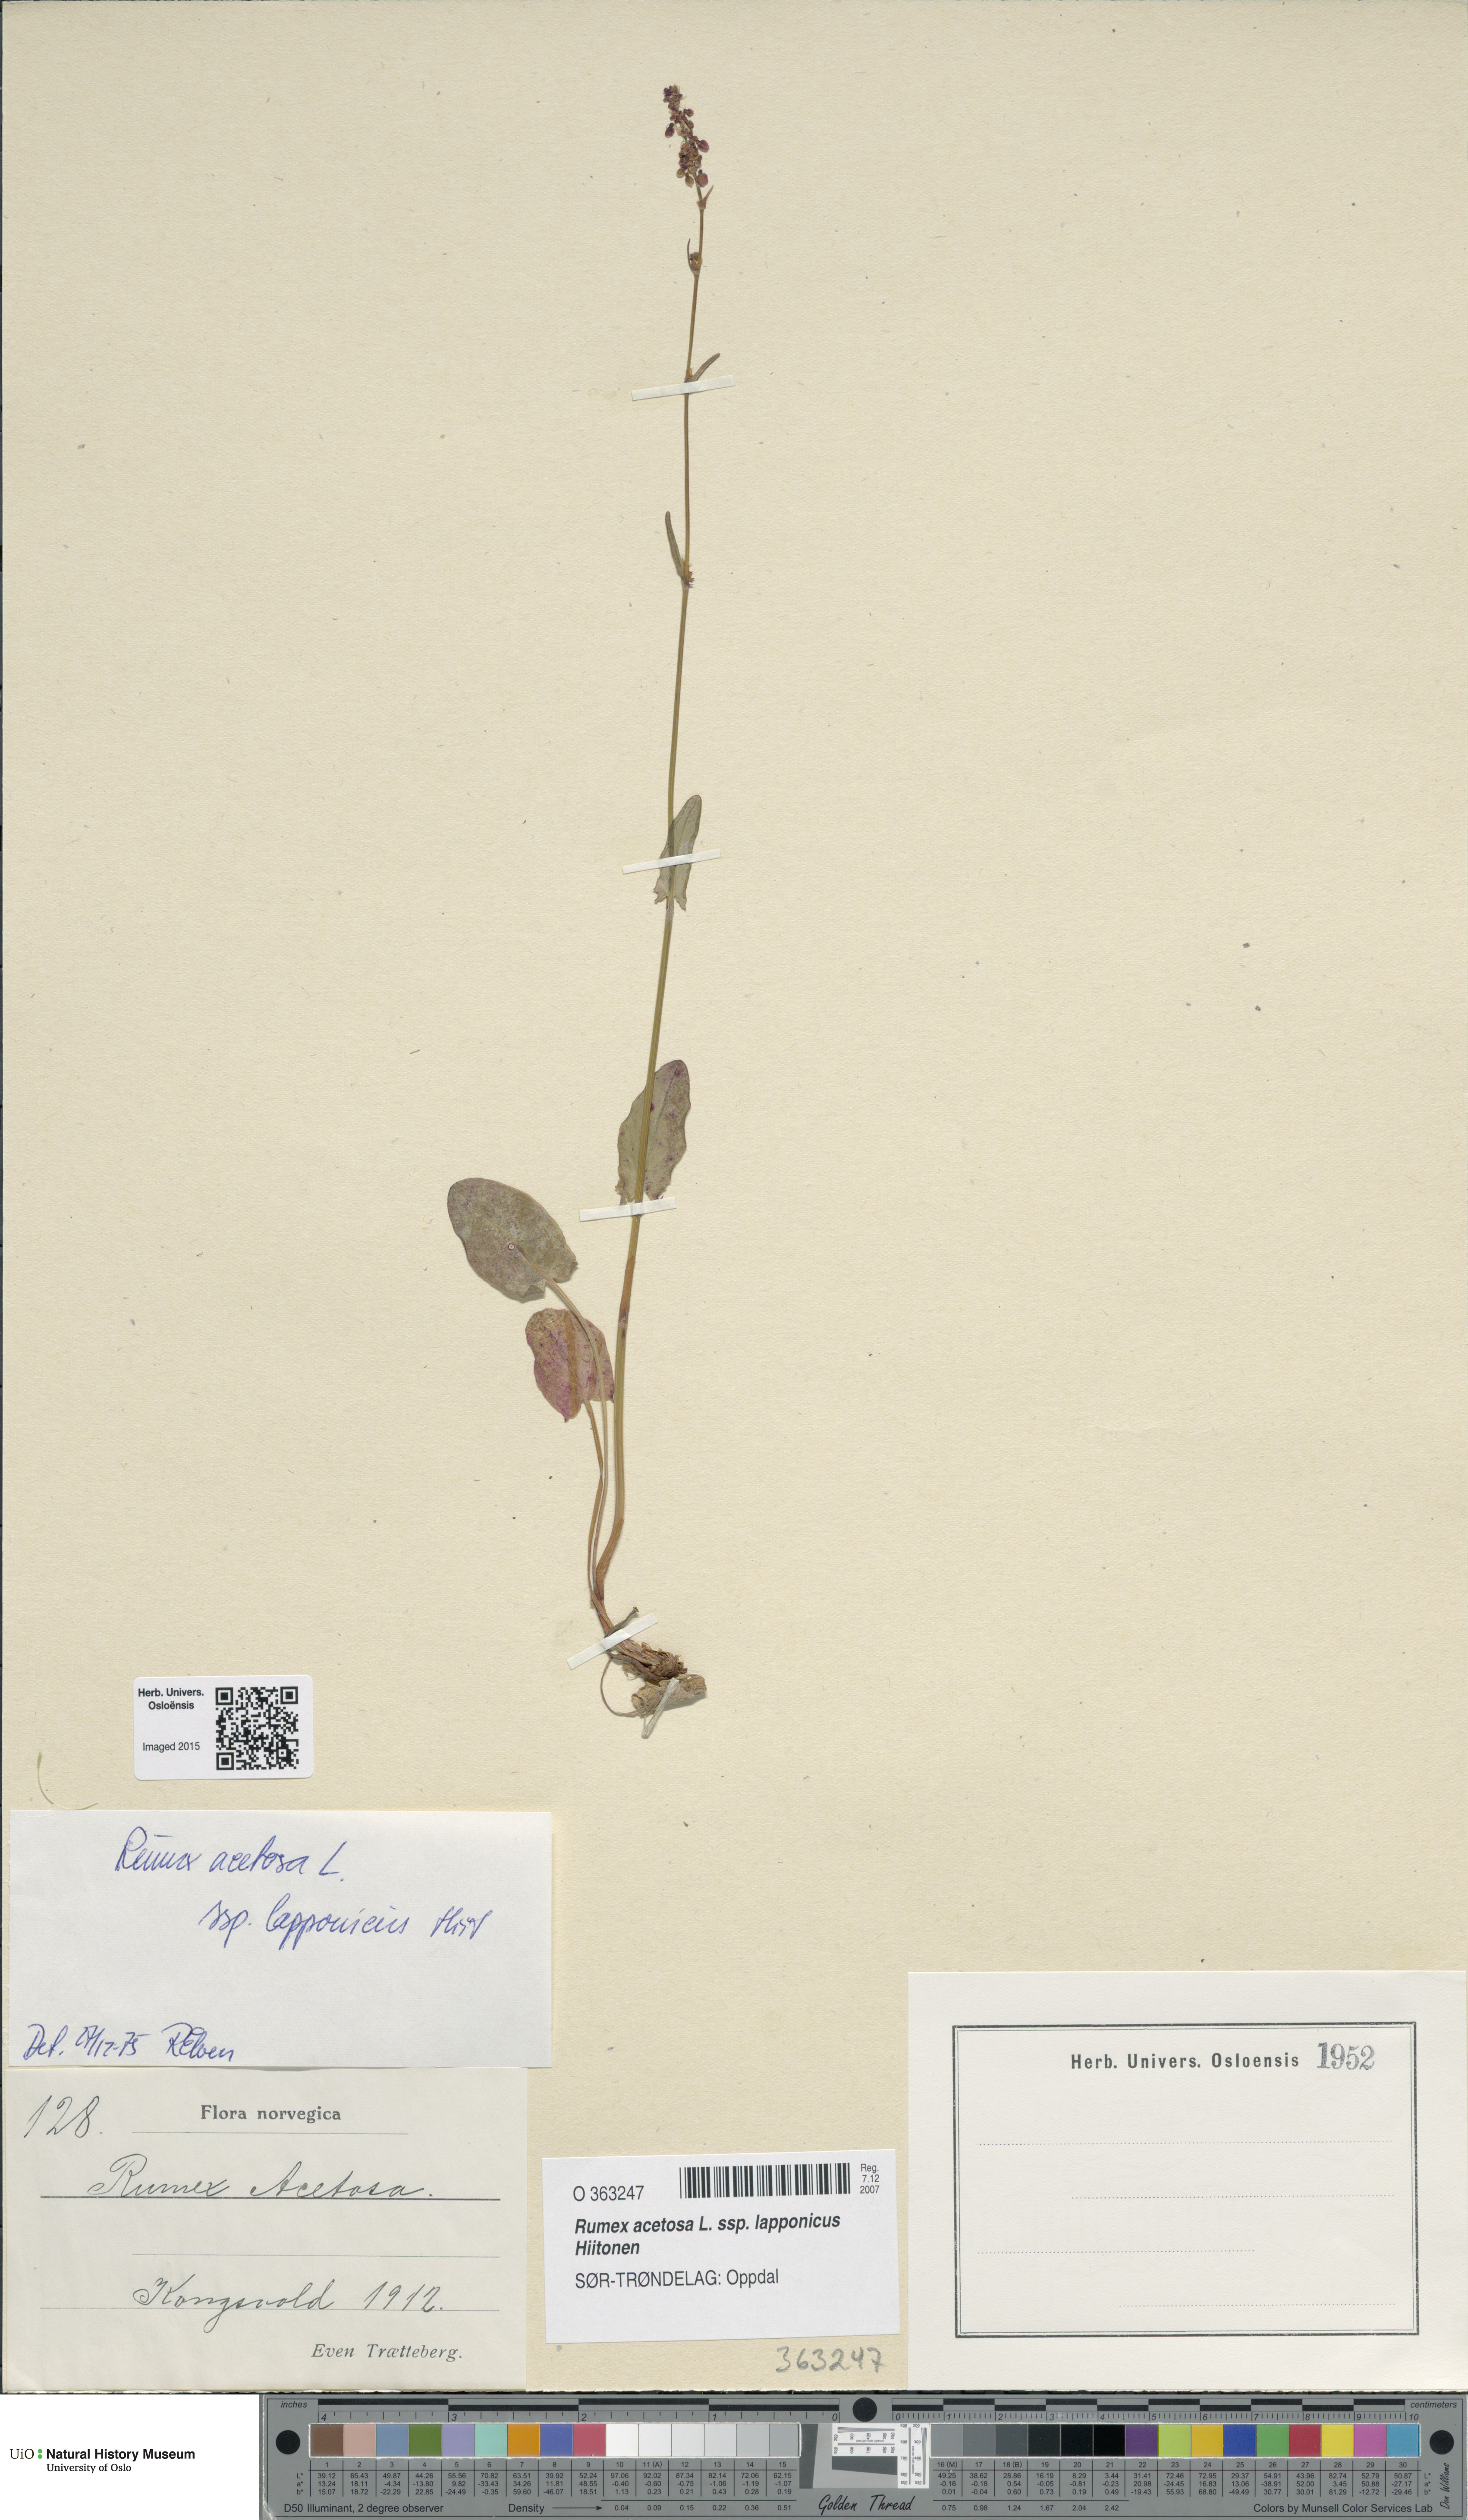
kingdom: Plantae
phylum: Tracheophyta
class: Magnoliopsida
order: Caryophyllales
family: Polygonaceae
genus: Rumex
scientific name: Rumex lapponicus
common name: Lapland mountain sorrel
